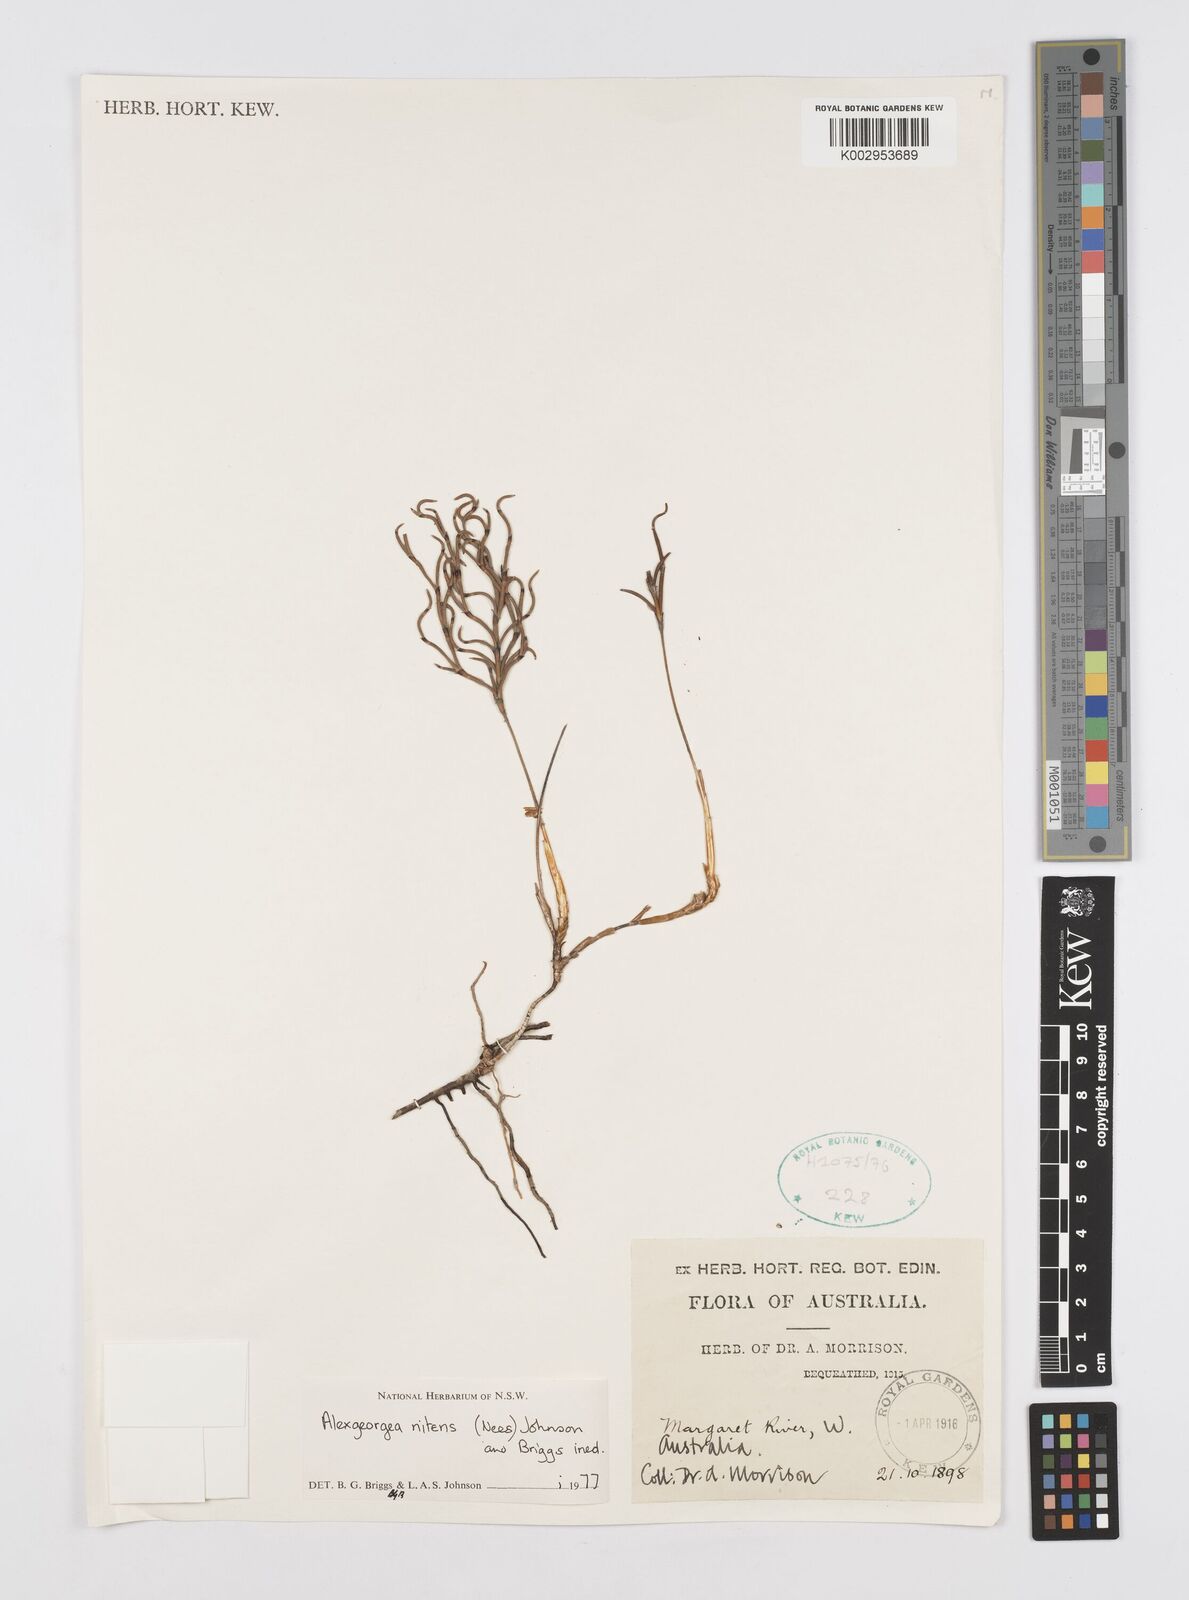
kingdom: Plantae
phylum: Tracheophyta
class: Liliopsida
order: Poales
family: Restionaceae
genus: Alexgeorgea
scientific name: Alexgeorgea nitens
